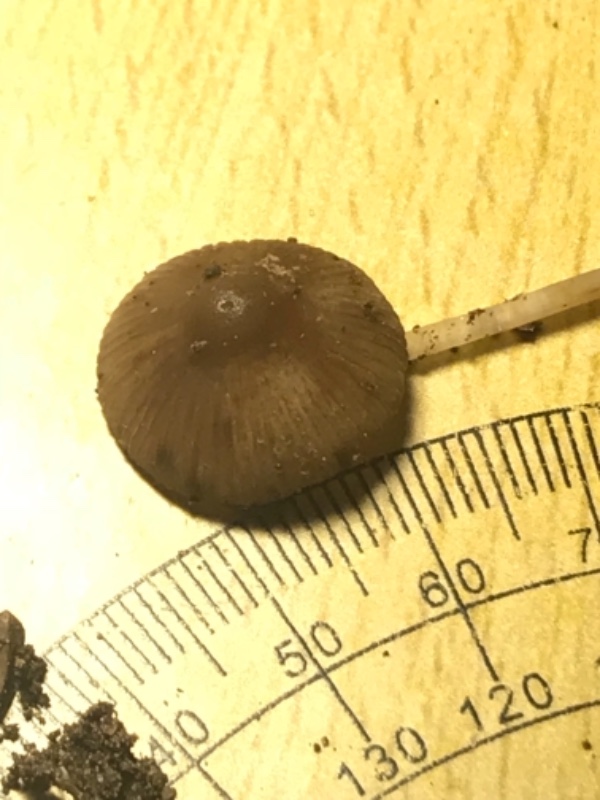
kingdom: Fungi
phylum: Basidiomycota
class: Agaricomycetes
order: Agaricales
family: Mycenaceae
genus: Mycena
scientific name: Mycena polygramma
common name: mangestribet huesvamp
